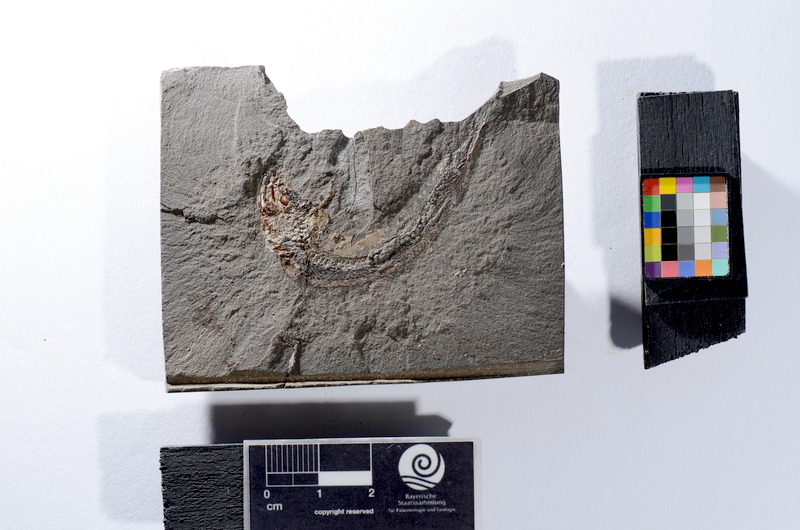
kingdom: Animalia
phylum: Chordata
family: Leptolepididae
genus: Leptolepis
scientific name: Leptolepis coryphaenoides
